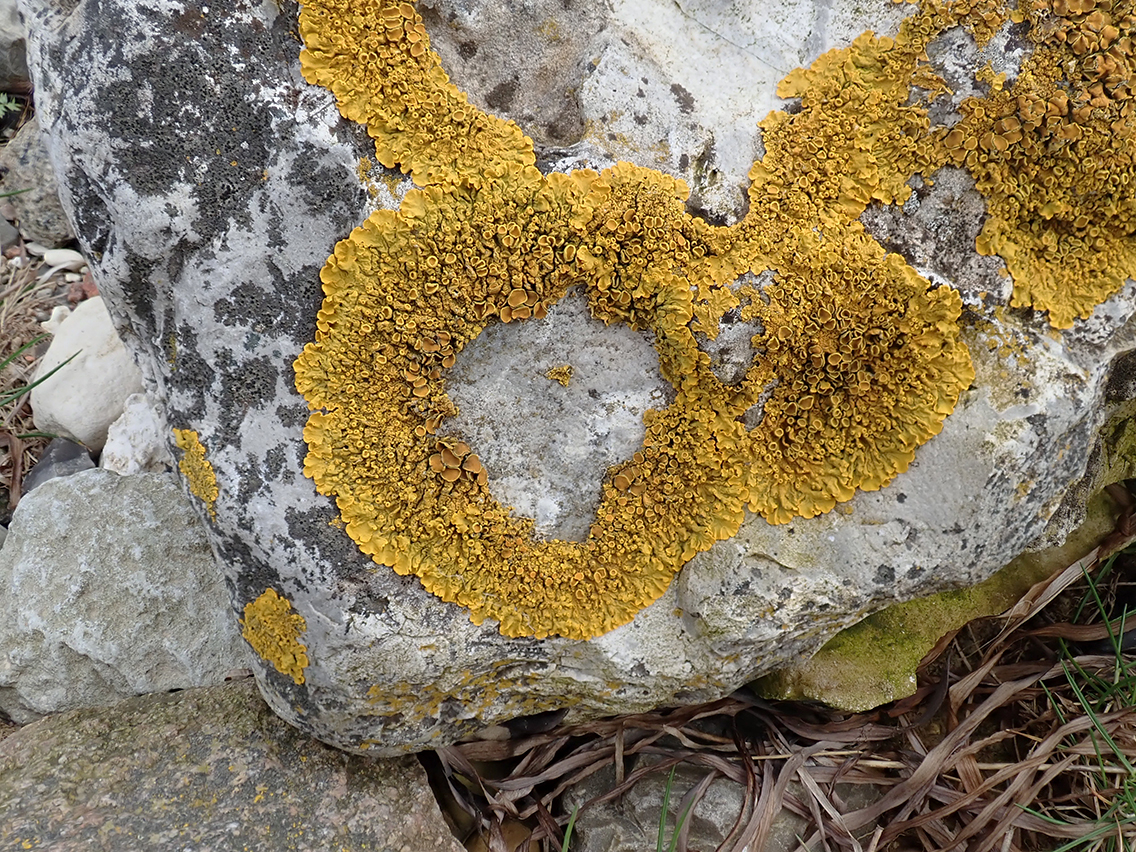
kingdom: Fungi
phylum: Ascomycota
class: Lecanoromycetes
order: Teloschistales
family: Teloschistaceae
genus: Xanthoria
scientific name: Xanthoria parietina
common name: almindelig væggelav
